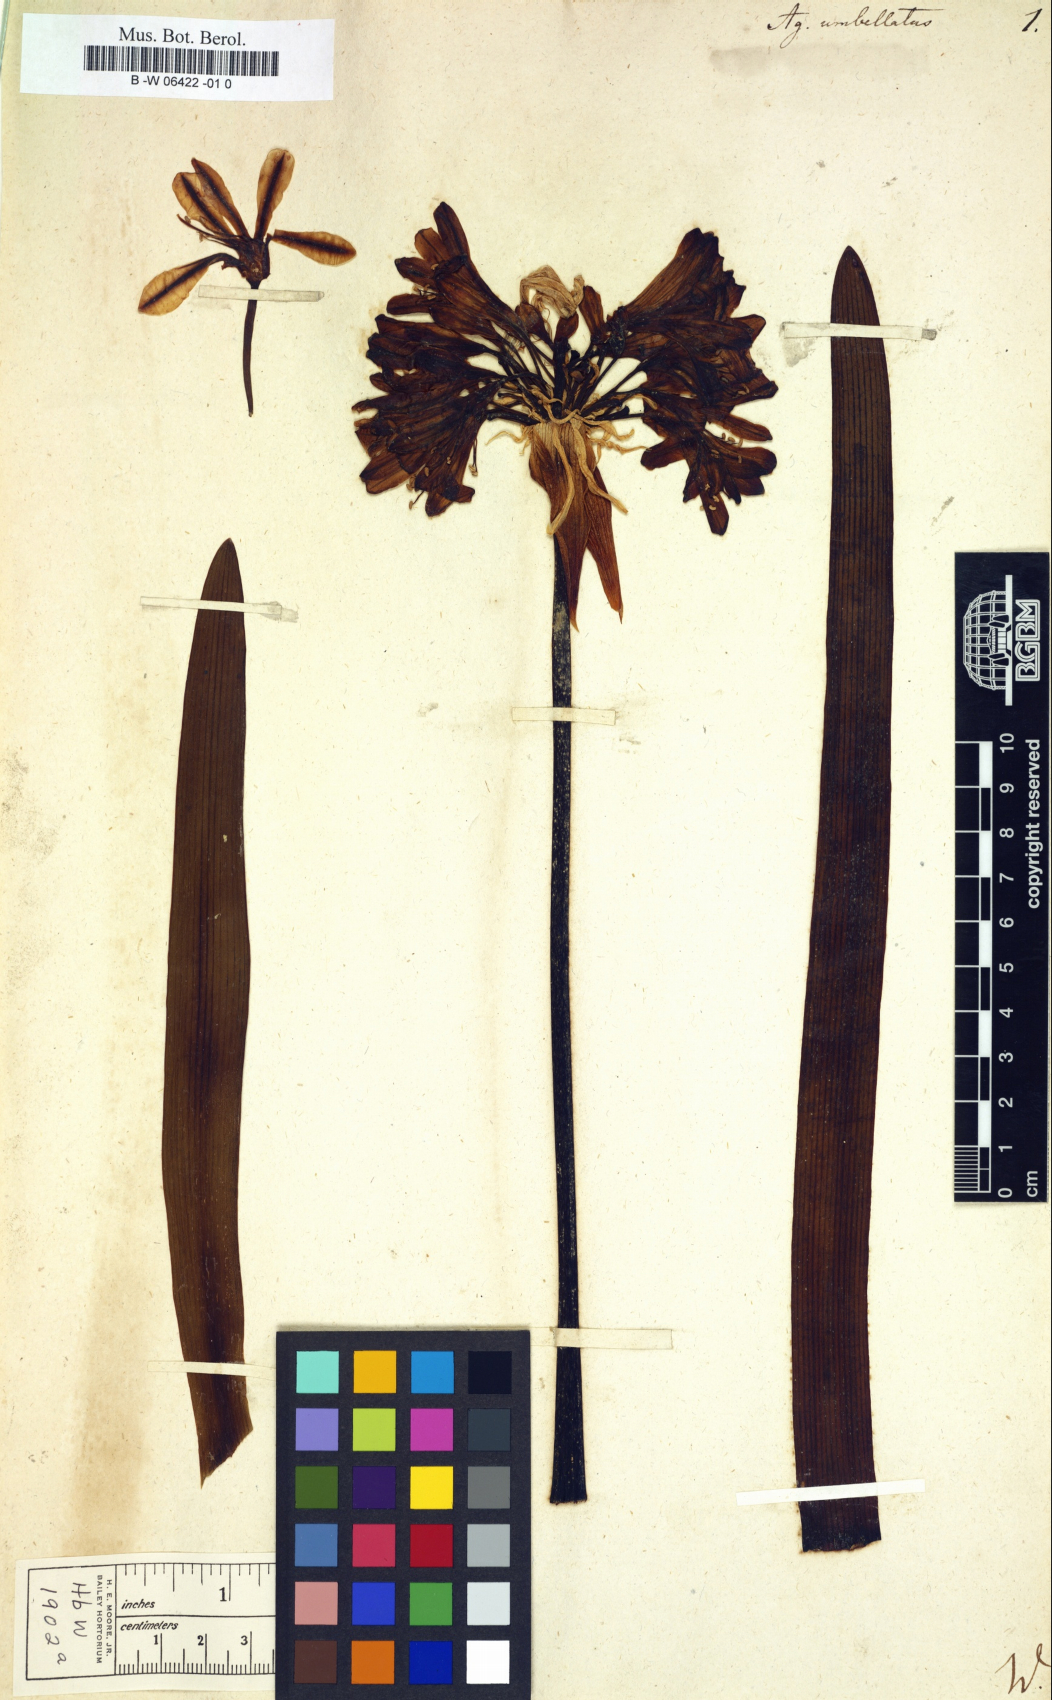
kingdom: Plantae
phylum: Tracheophyta
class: Liliopsida
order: Asparagales
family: Amaryllidaceae
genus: Agapanthus
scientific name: Agapanthus africanus
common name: Lily-of-the-nile
